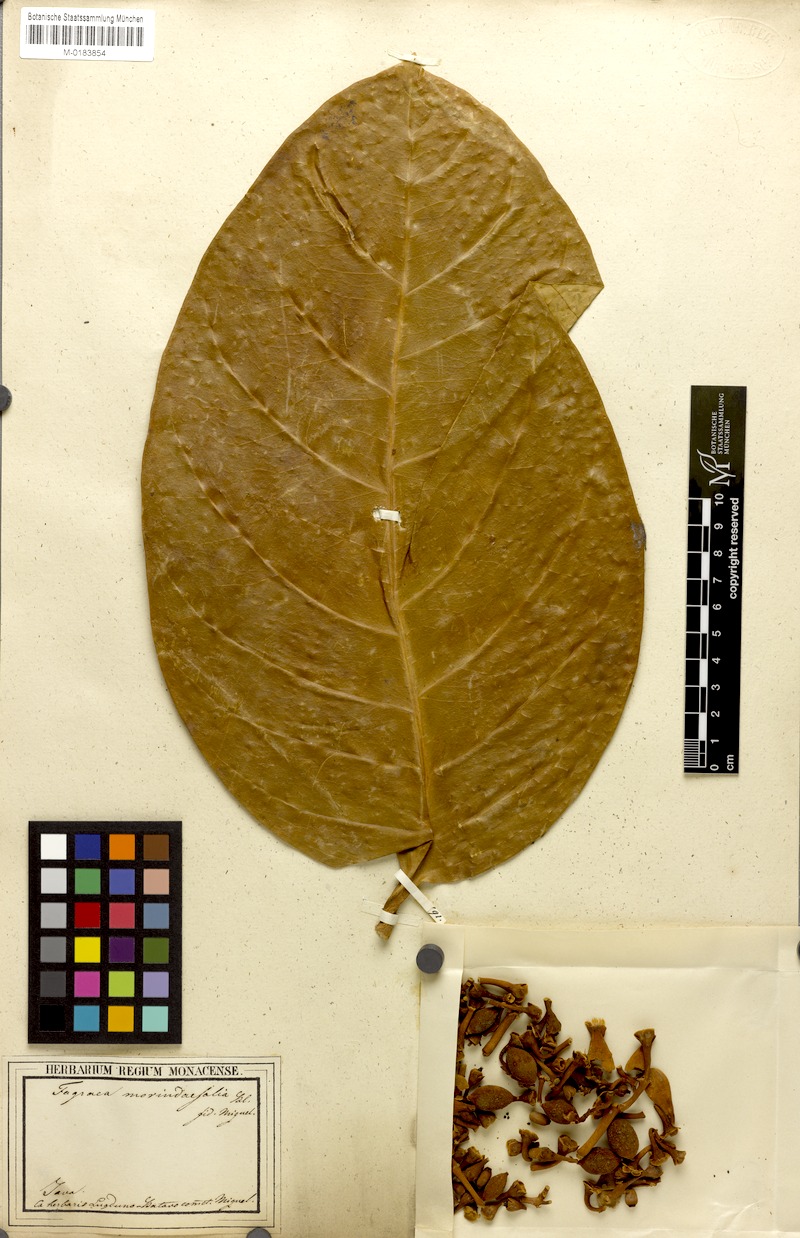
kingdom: Plantae
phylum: Tracheophyta
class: Magnoliopsida
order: Gentianales
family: Gentianaceae
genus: Utania
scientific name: Utania volubilis
